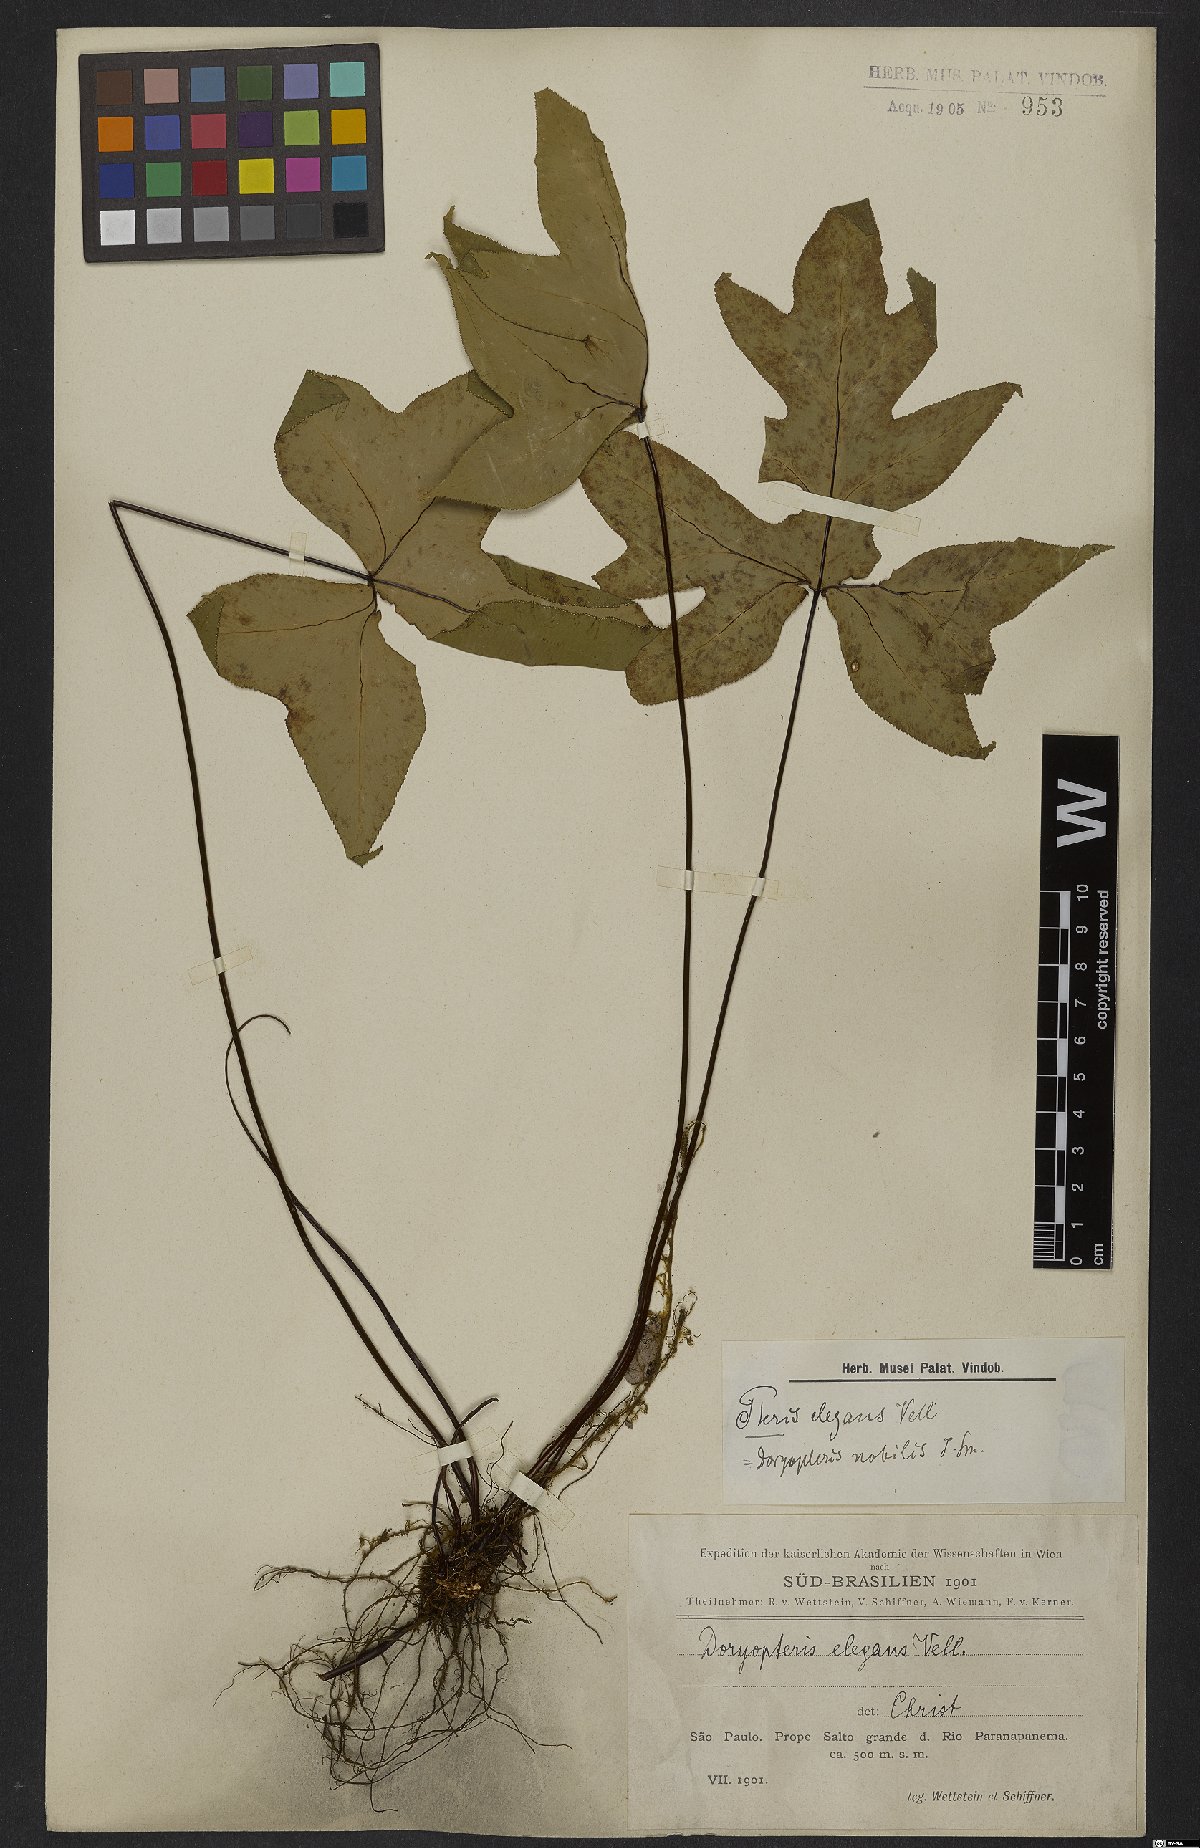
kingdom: Plantae
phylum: Tracheophyta
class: Polypodiopsida
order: Polypodiales
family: Pteridaceae
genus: Doryopteris
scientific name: Doryopteris nobilis
